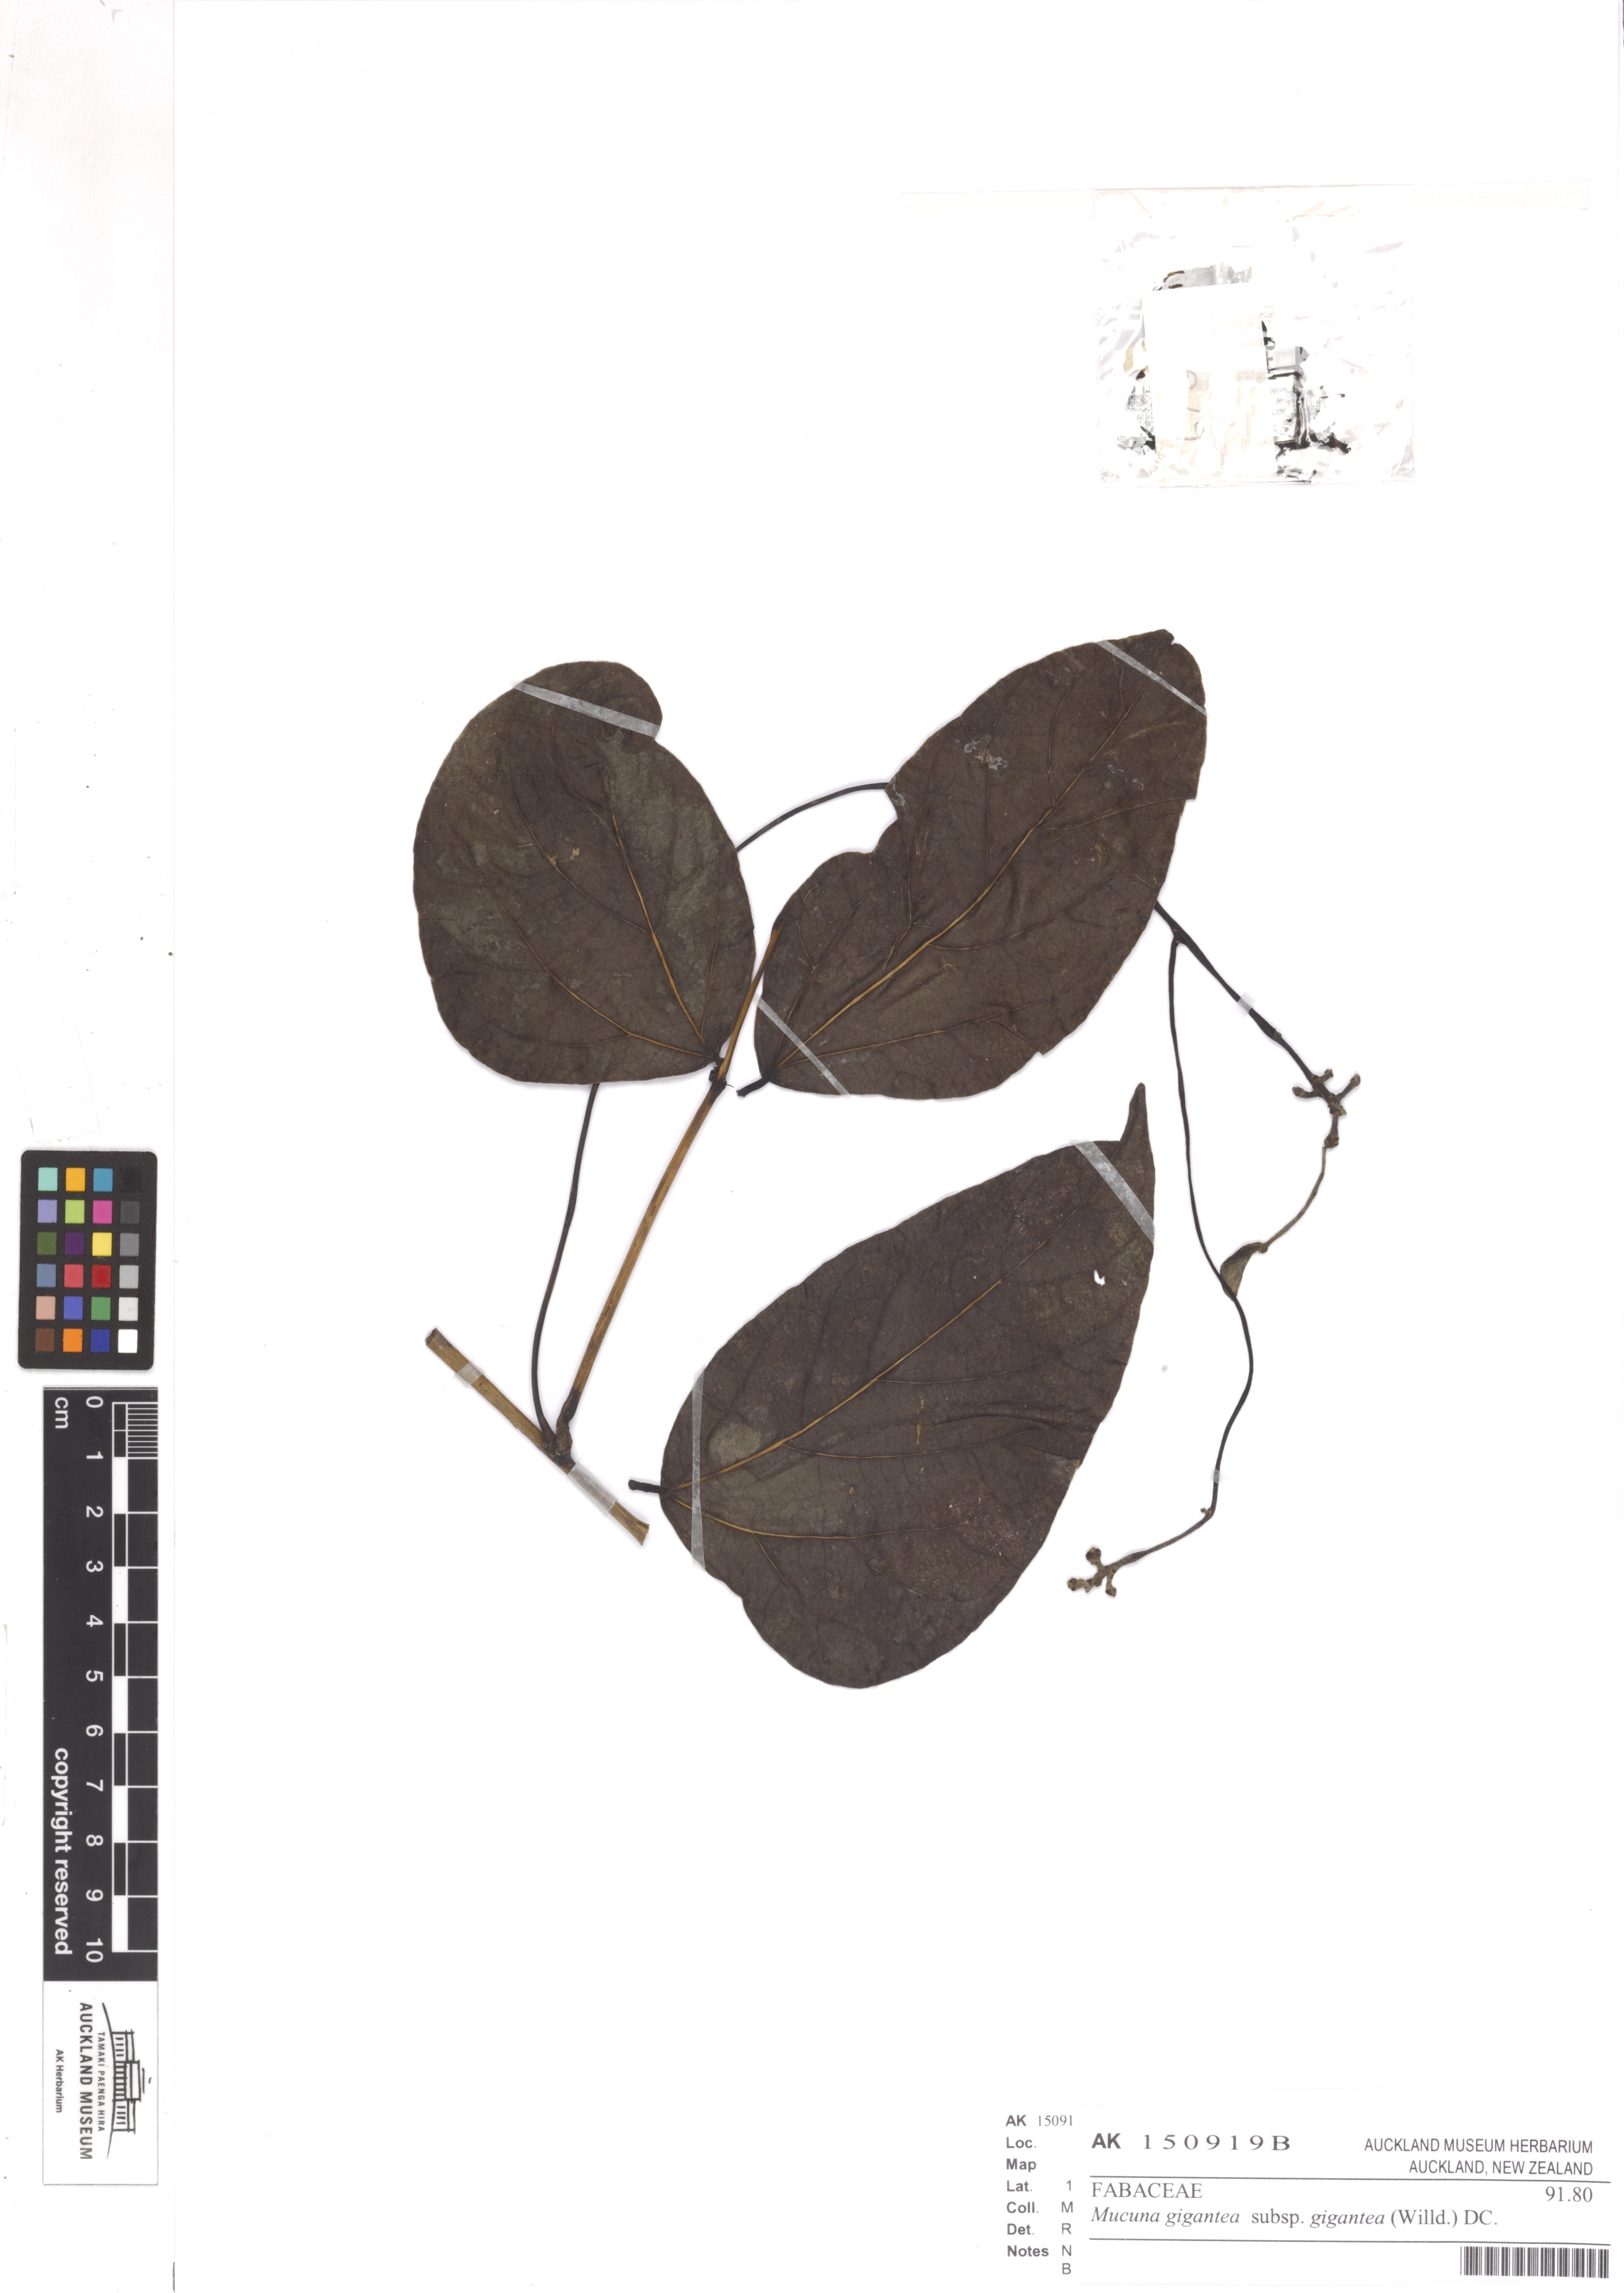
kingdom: Plantae
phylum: Tracheophyta
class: Magnoliopsida
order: Fabales
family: Fabaceae
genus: Mucuna
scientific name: Mucuna gigantea
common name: Black-bean
